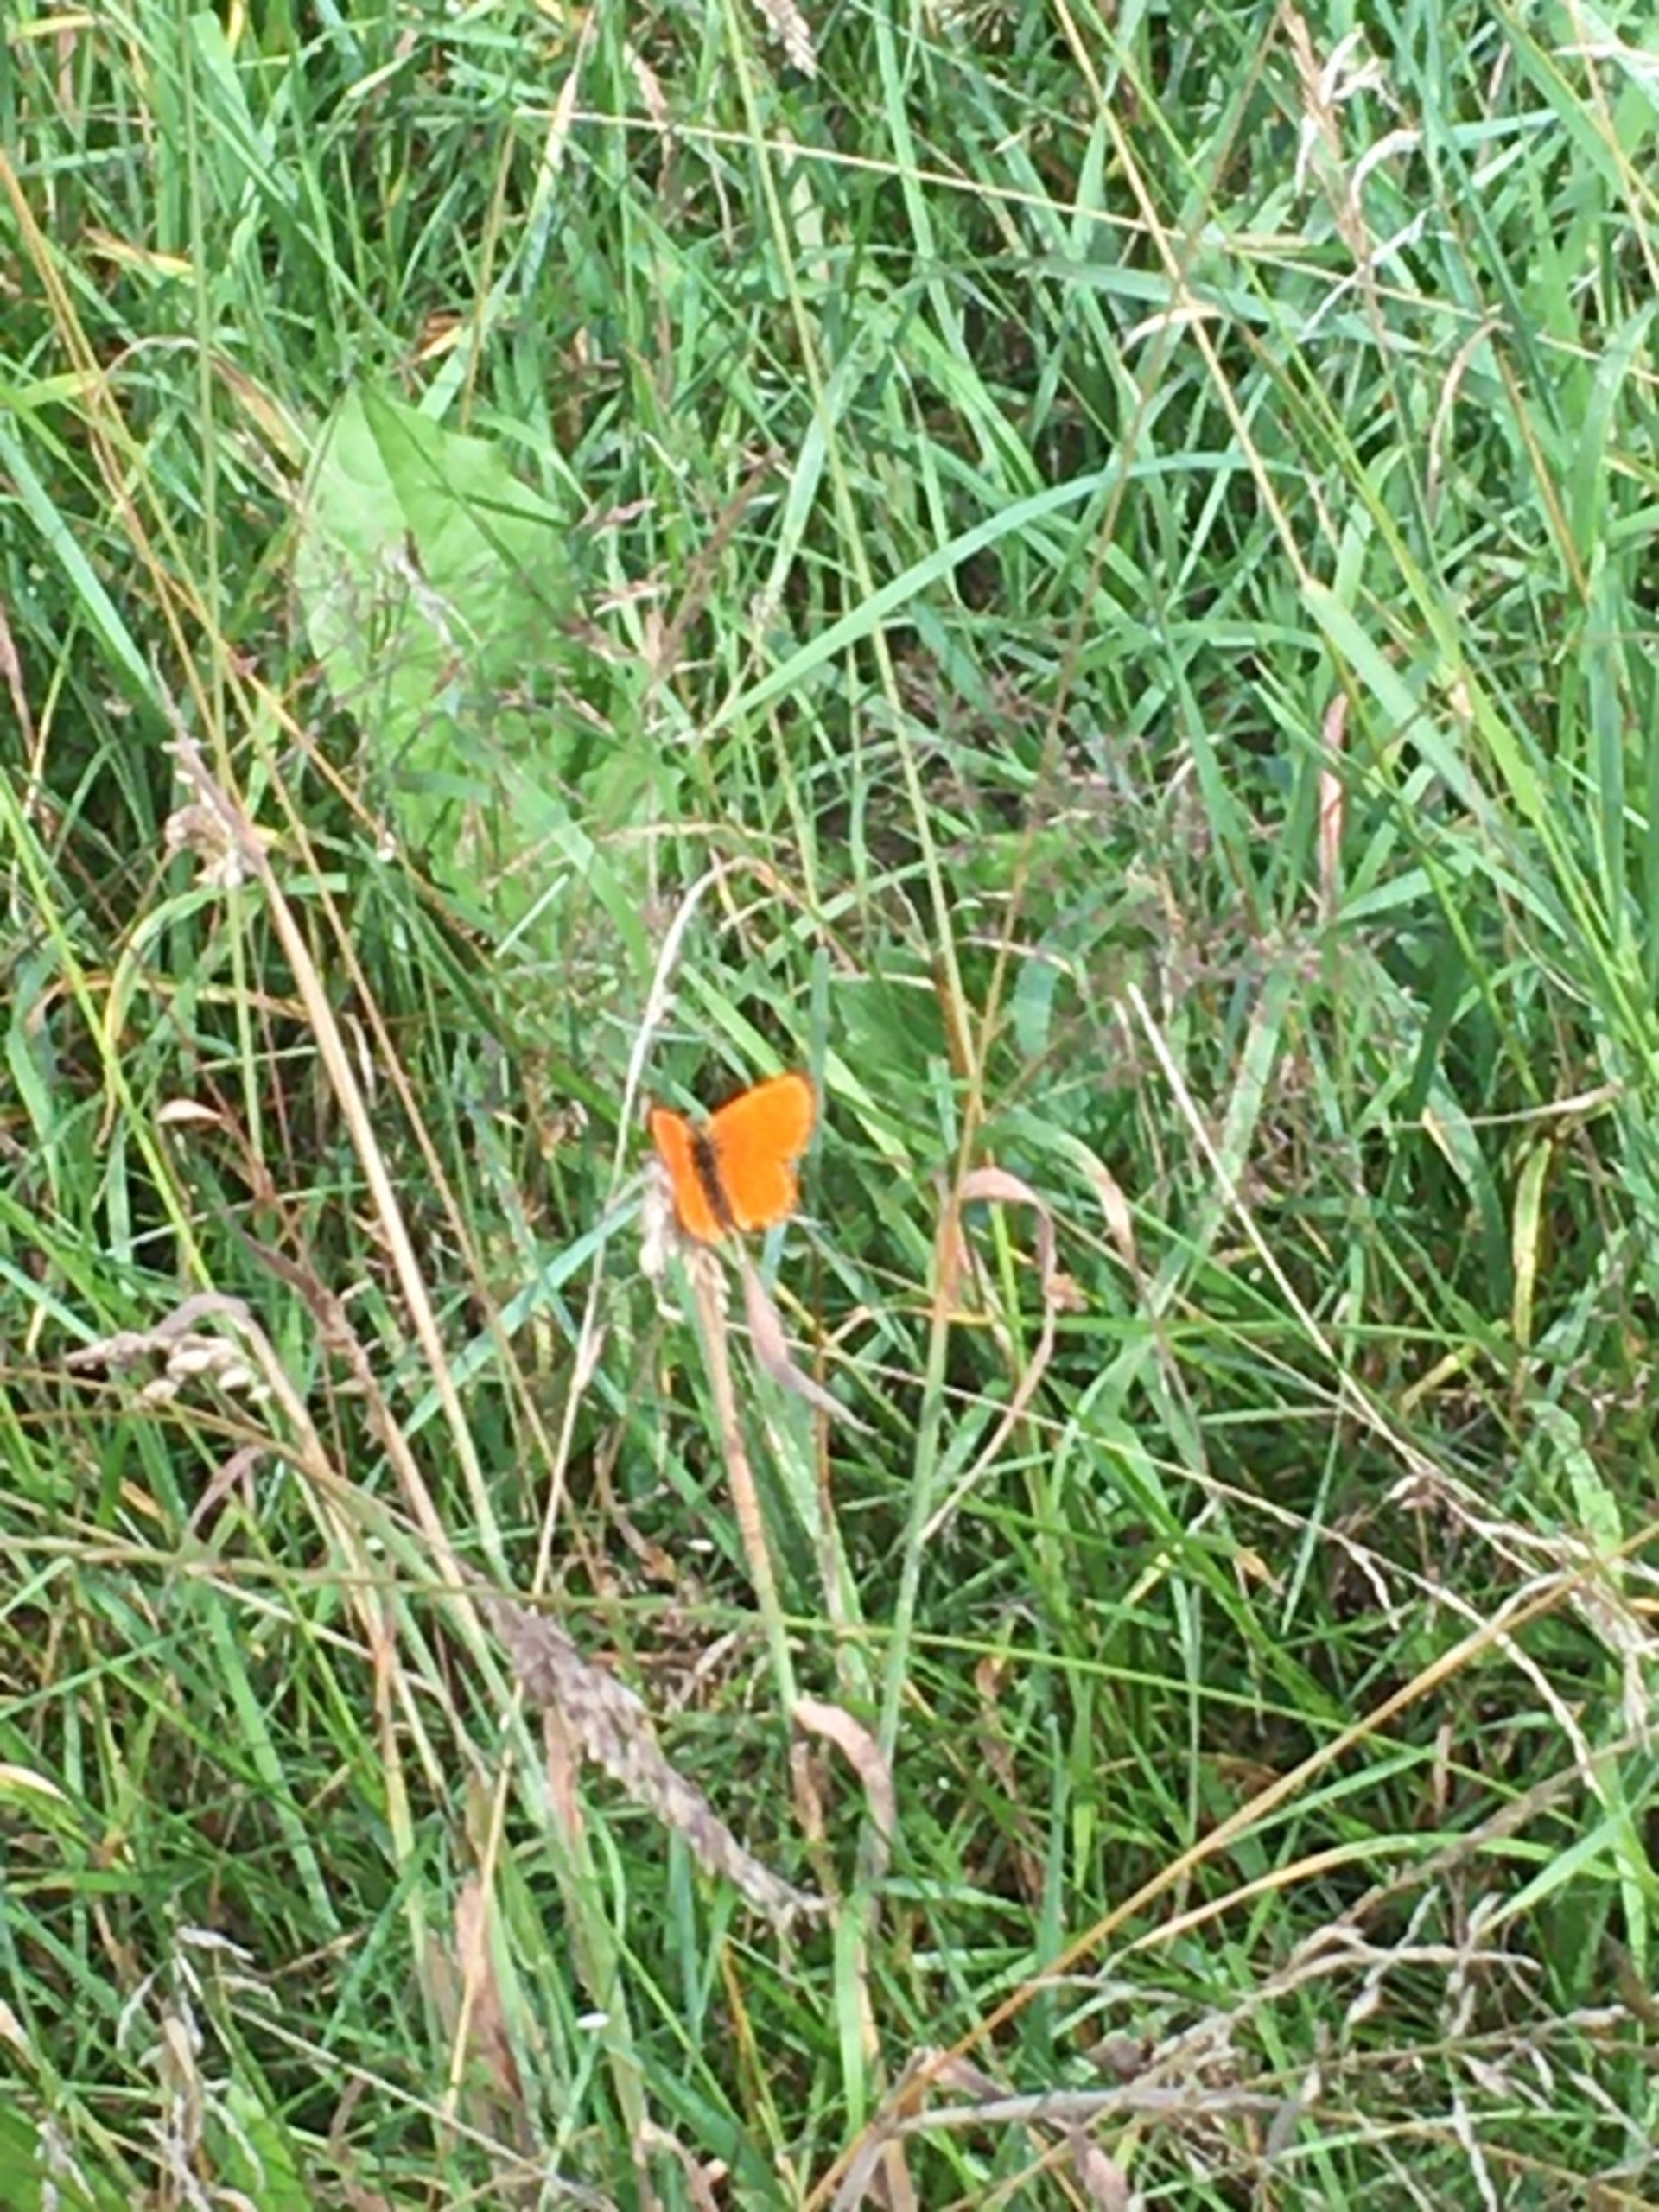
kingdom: Animalia
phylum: Arthropoda
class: Insecta
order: Lepidoptera
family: Lycaenidae
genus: Lycaena
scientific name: Lycaena virgaureae
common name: Dukatsommerfugl
